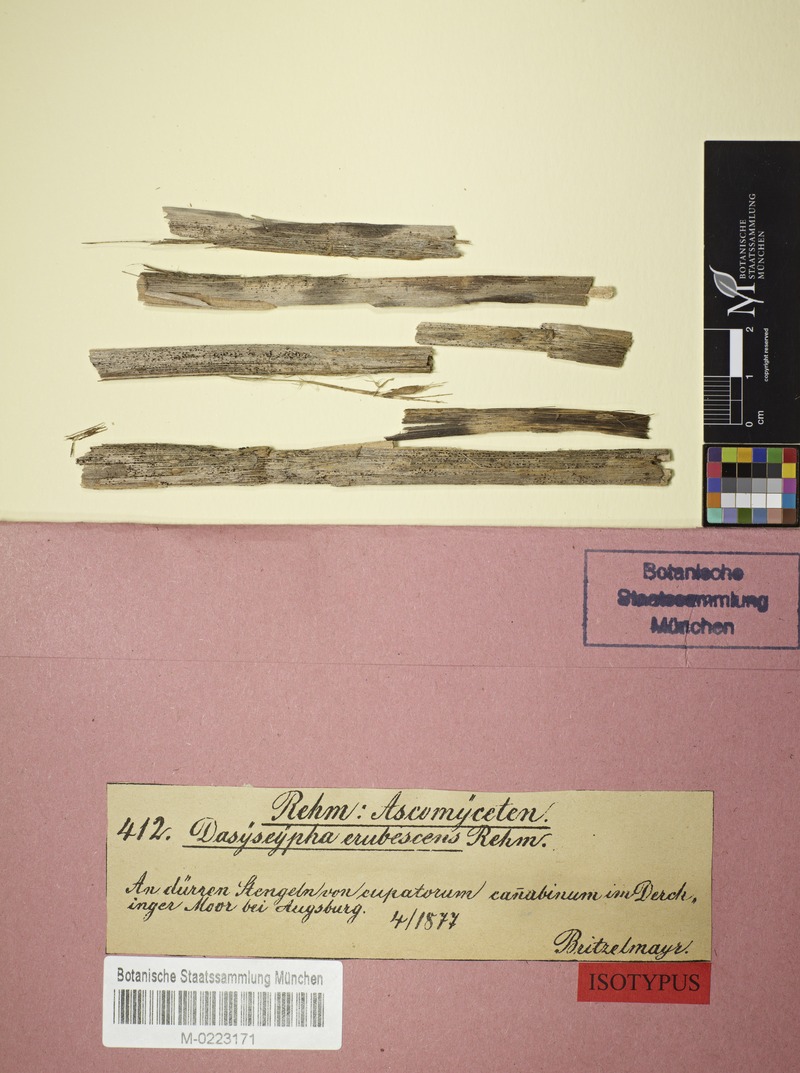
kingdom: Fungi
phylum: Ascomycota
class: Leotiomycetes
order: Helotiales
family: Ploettnerulaceae
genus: Pyrenopeziza
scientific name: Pyrenopeziza aureola
